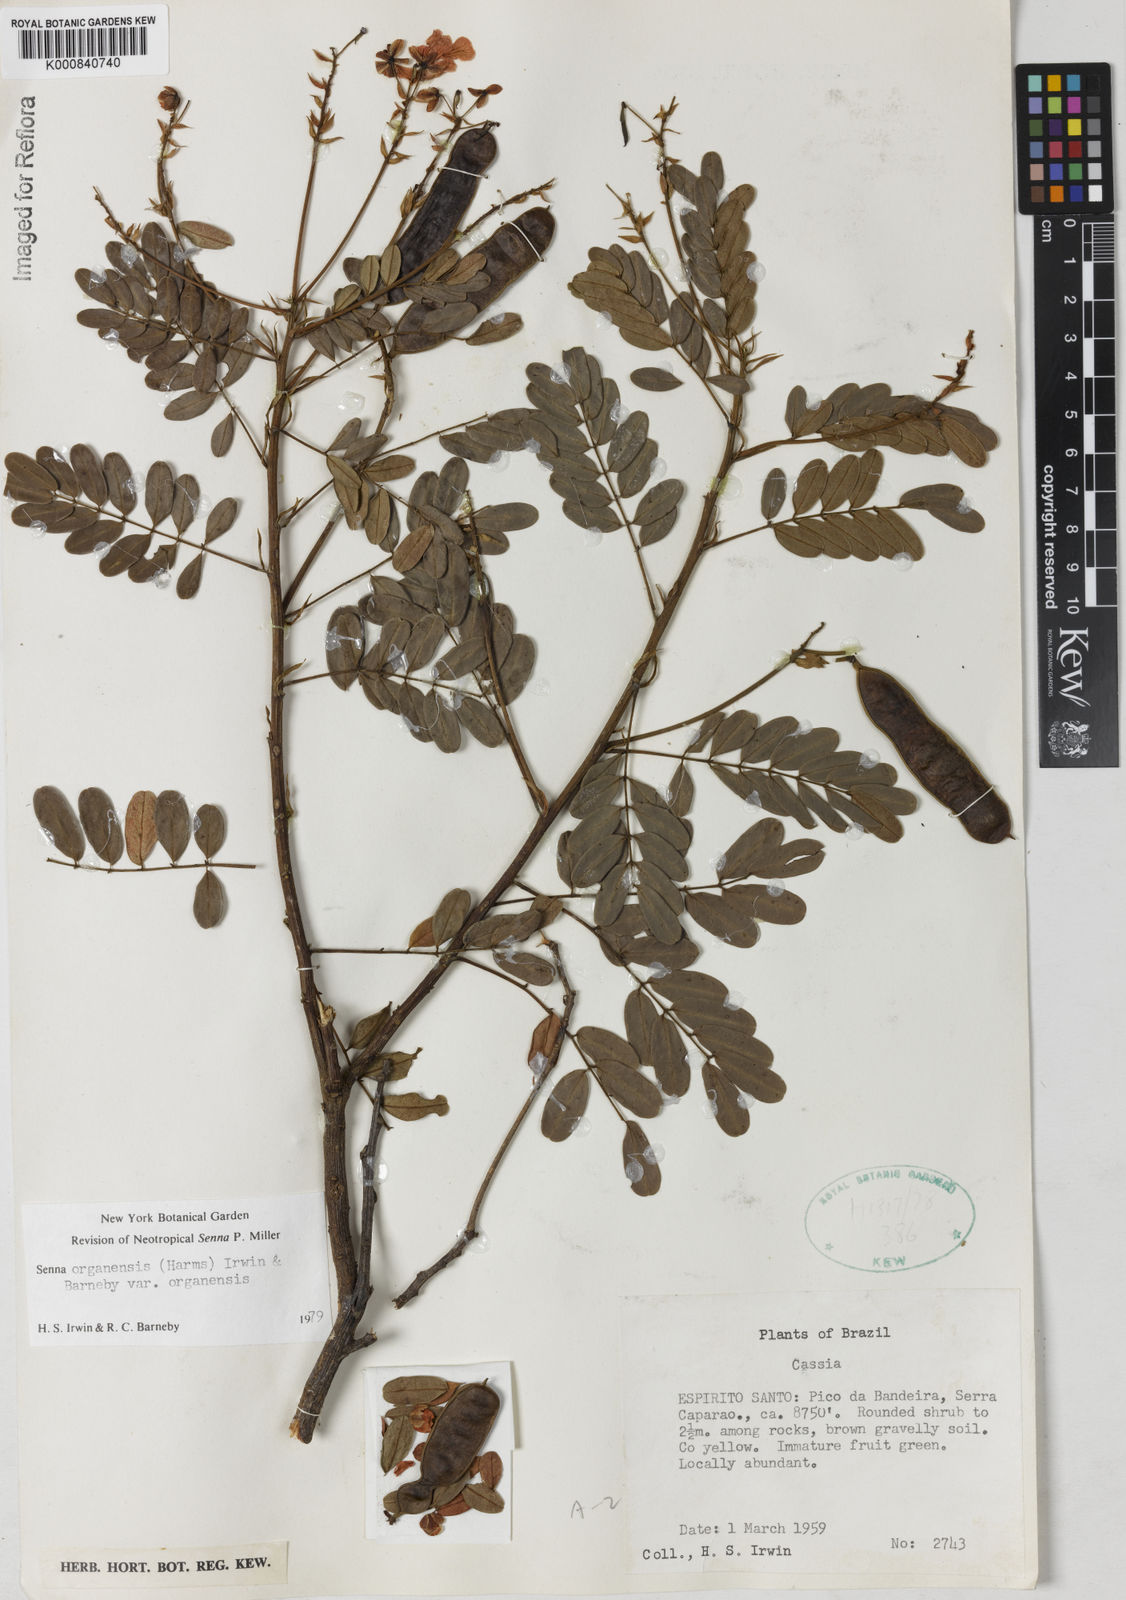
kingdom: Plantae
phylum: Tracheophyta
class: Magnoliopsida
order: Fabales
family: Fabaceae
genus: Senna
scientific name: Senna organensis
